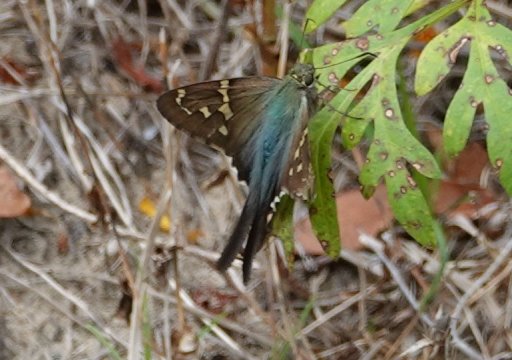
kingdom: Animalia
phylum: Arthropoda
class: Insecta
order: Lepidoptera
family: Hesperiidae
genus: Urbanus
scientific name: Urbanus proteus
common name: Long-tailed Skipper
